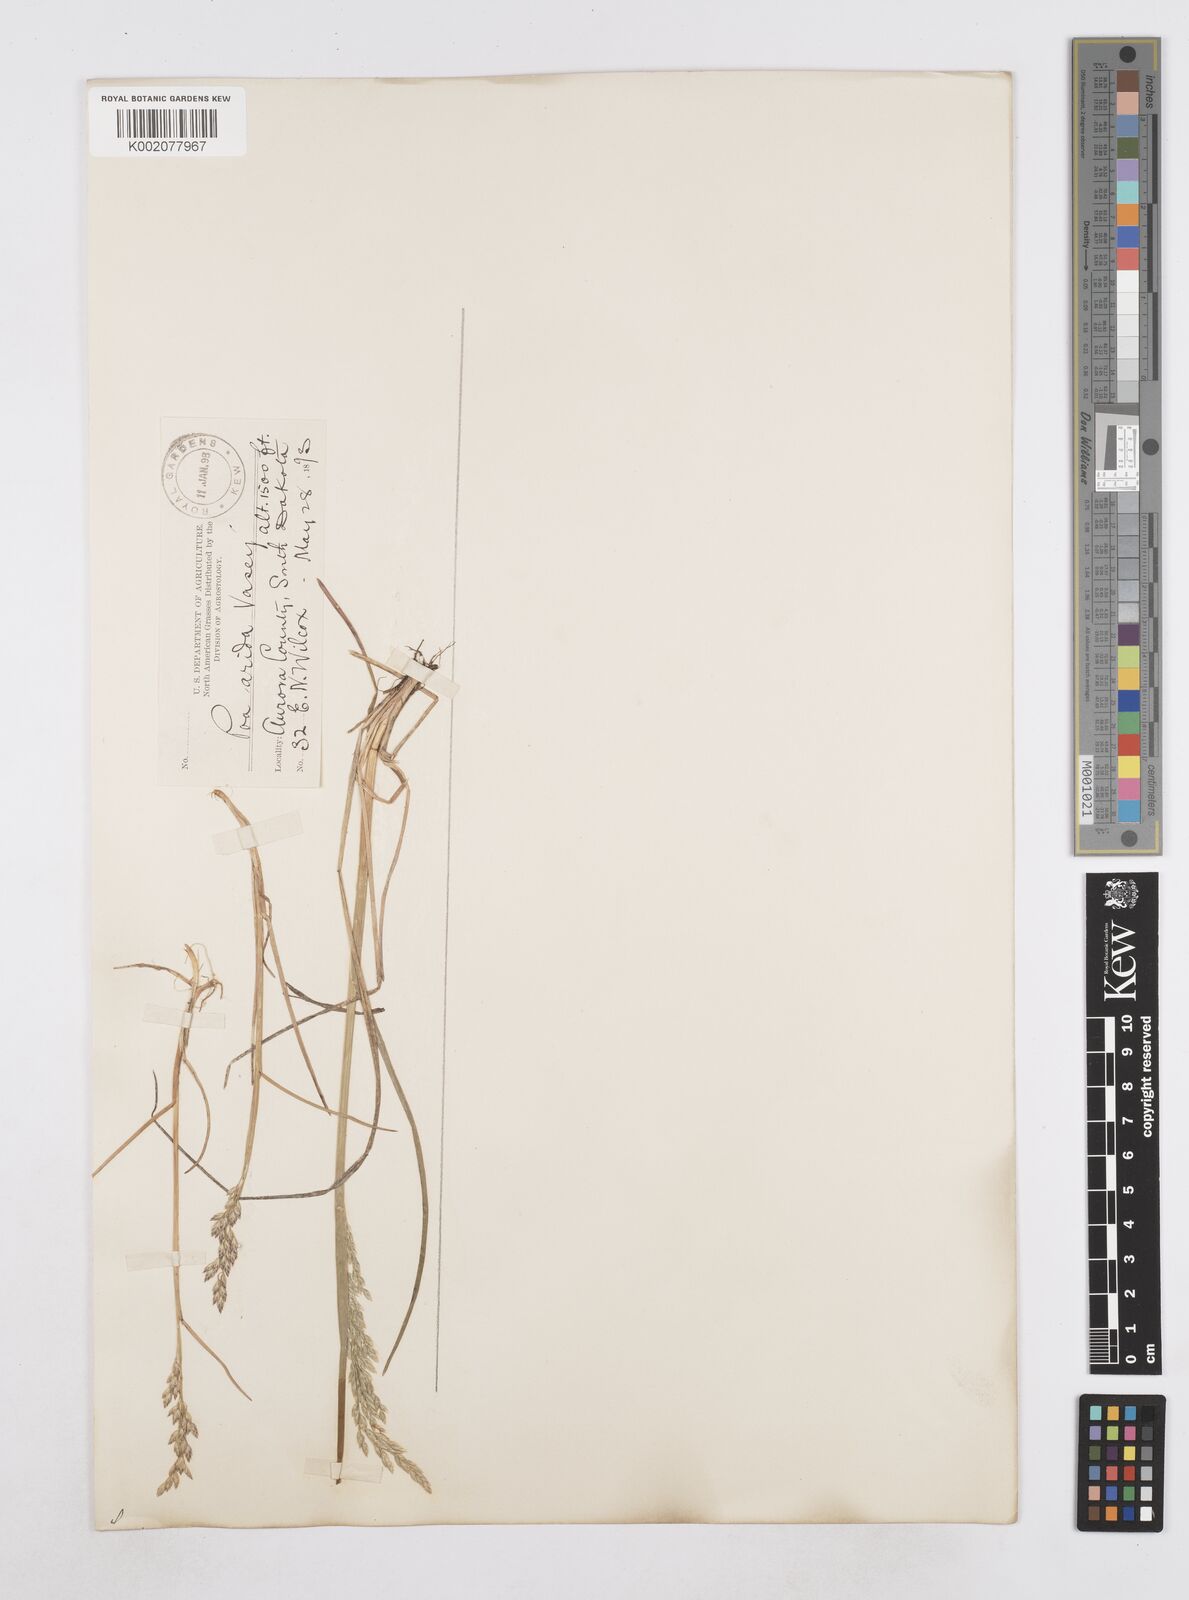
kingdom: Plantae
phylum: Tracheophyta
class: Liliopsida
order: Poales
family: Poaceae
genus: Poa
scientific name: Poa arida
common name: Plains bluegrass
